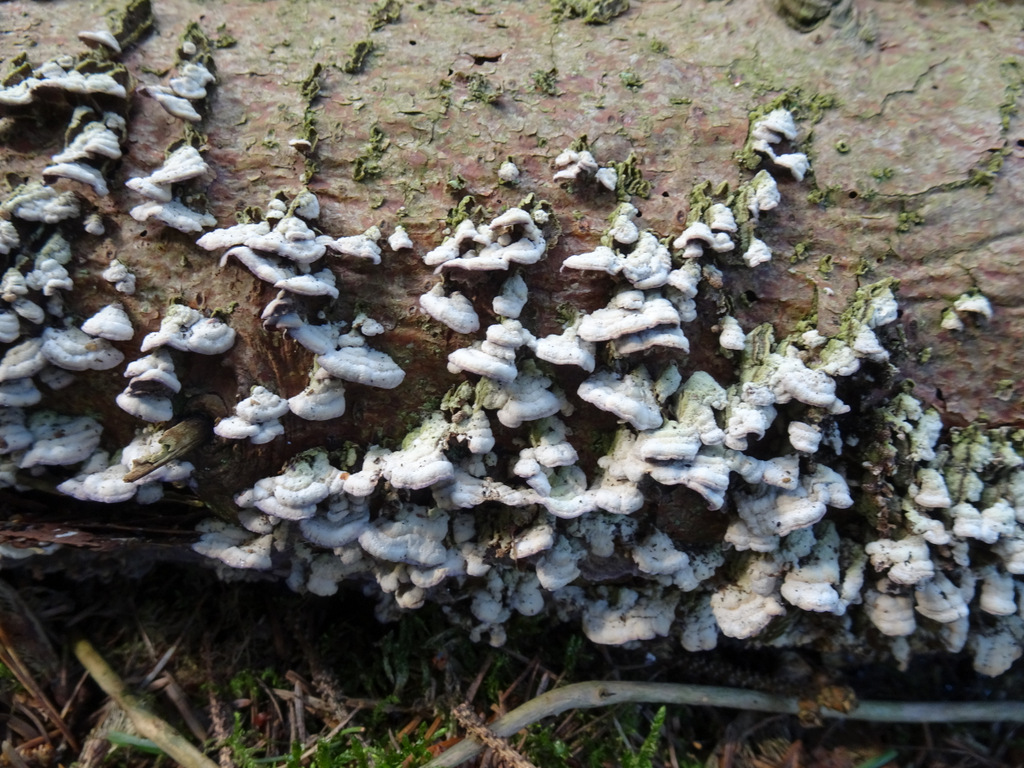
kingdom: Fungi
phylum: Basidiomycota
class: Agaricomycetes
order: Hymenochaetales
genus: Trichaptum
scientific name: Trichaptum abietinum
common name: almindelig violporesvamp
